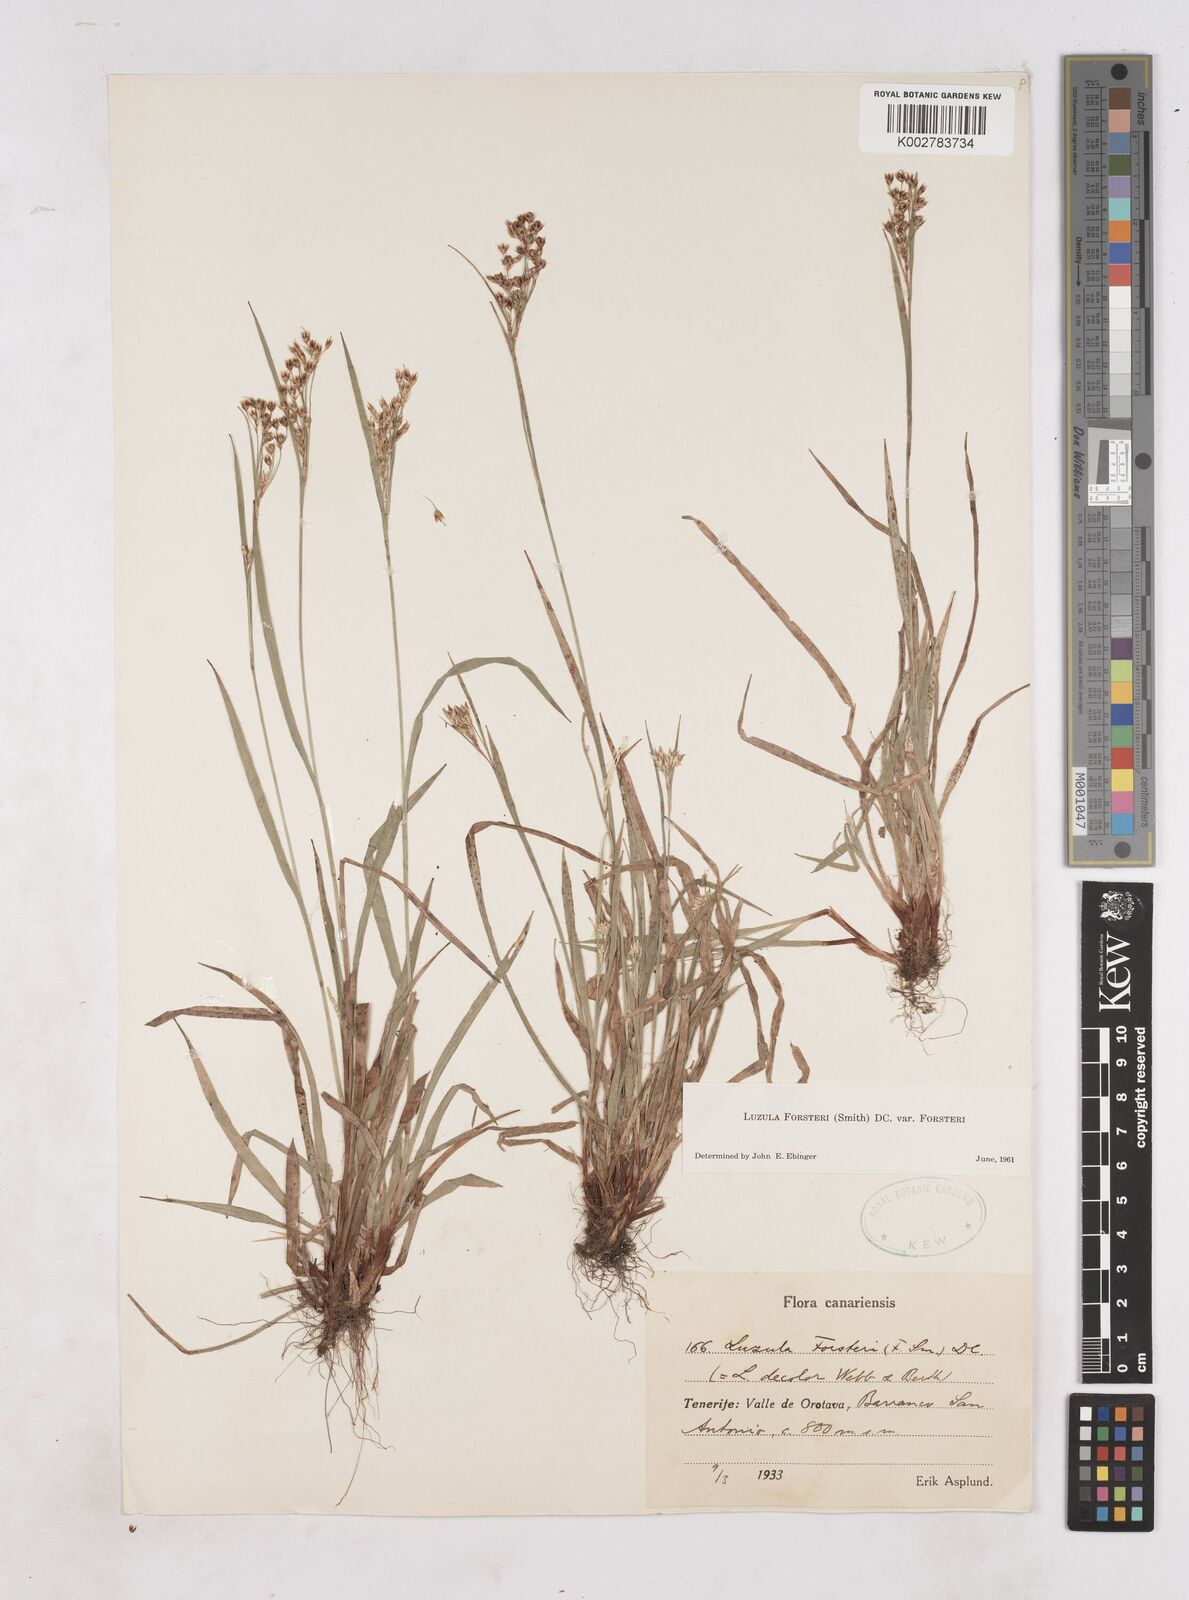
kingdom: Plantae
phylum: Tracheophyta
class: Liliopsida
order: Poales
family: Juncaceae
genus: Luzula
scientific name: Luzula forsteri
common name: Southern wood-rush
